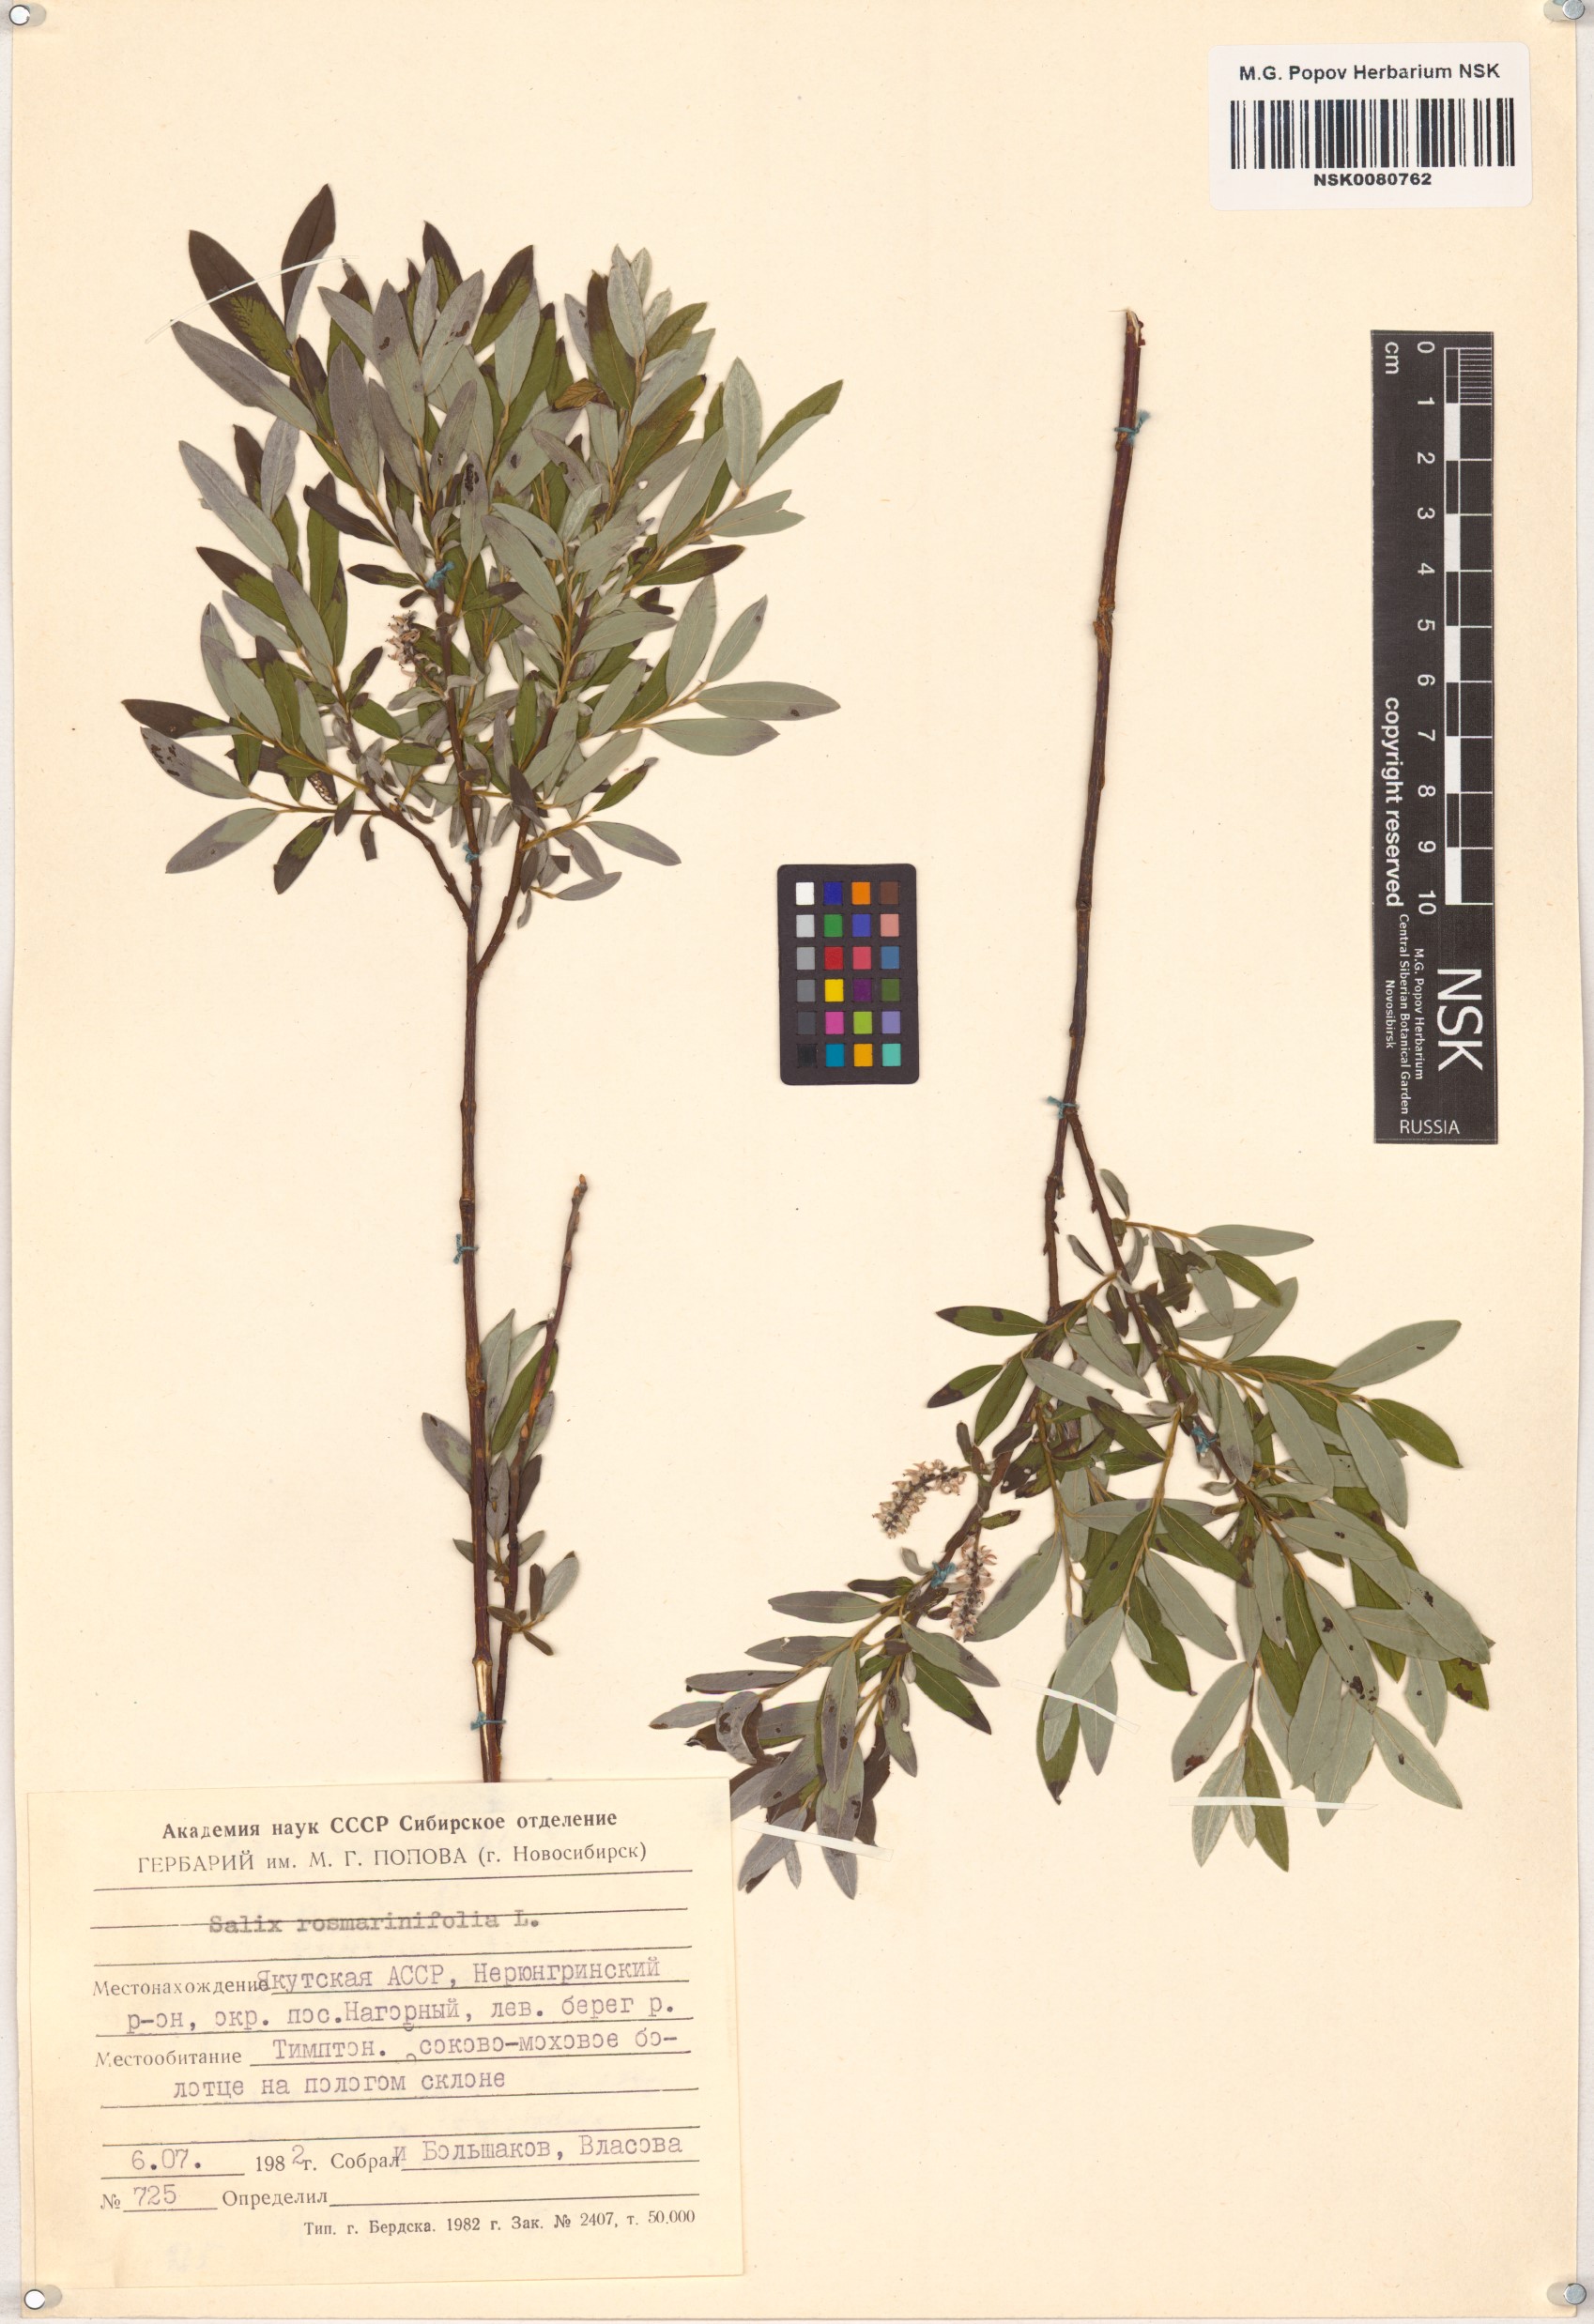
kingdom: Plantae
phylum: Tracheophyta
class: Magnoliopsida
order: Malpighiales
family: Salicaceae
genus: Salix
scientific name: Salix rosmarinifolia
